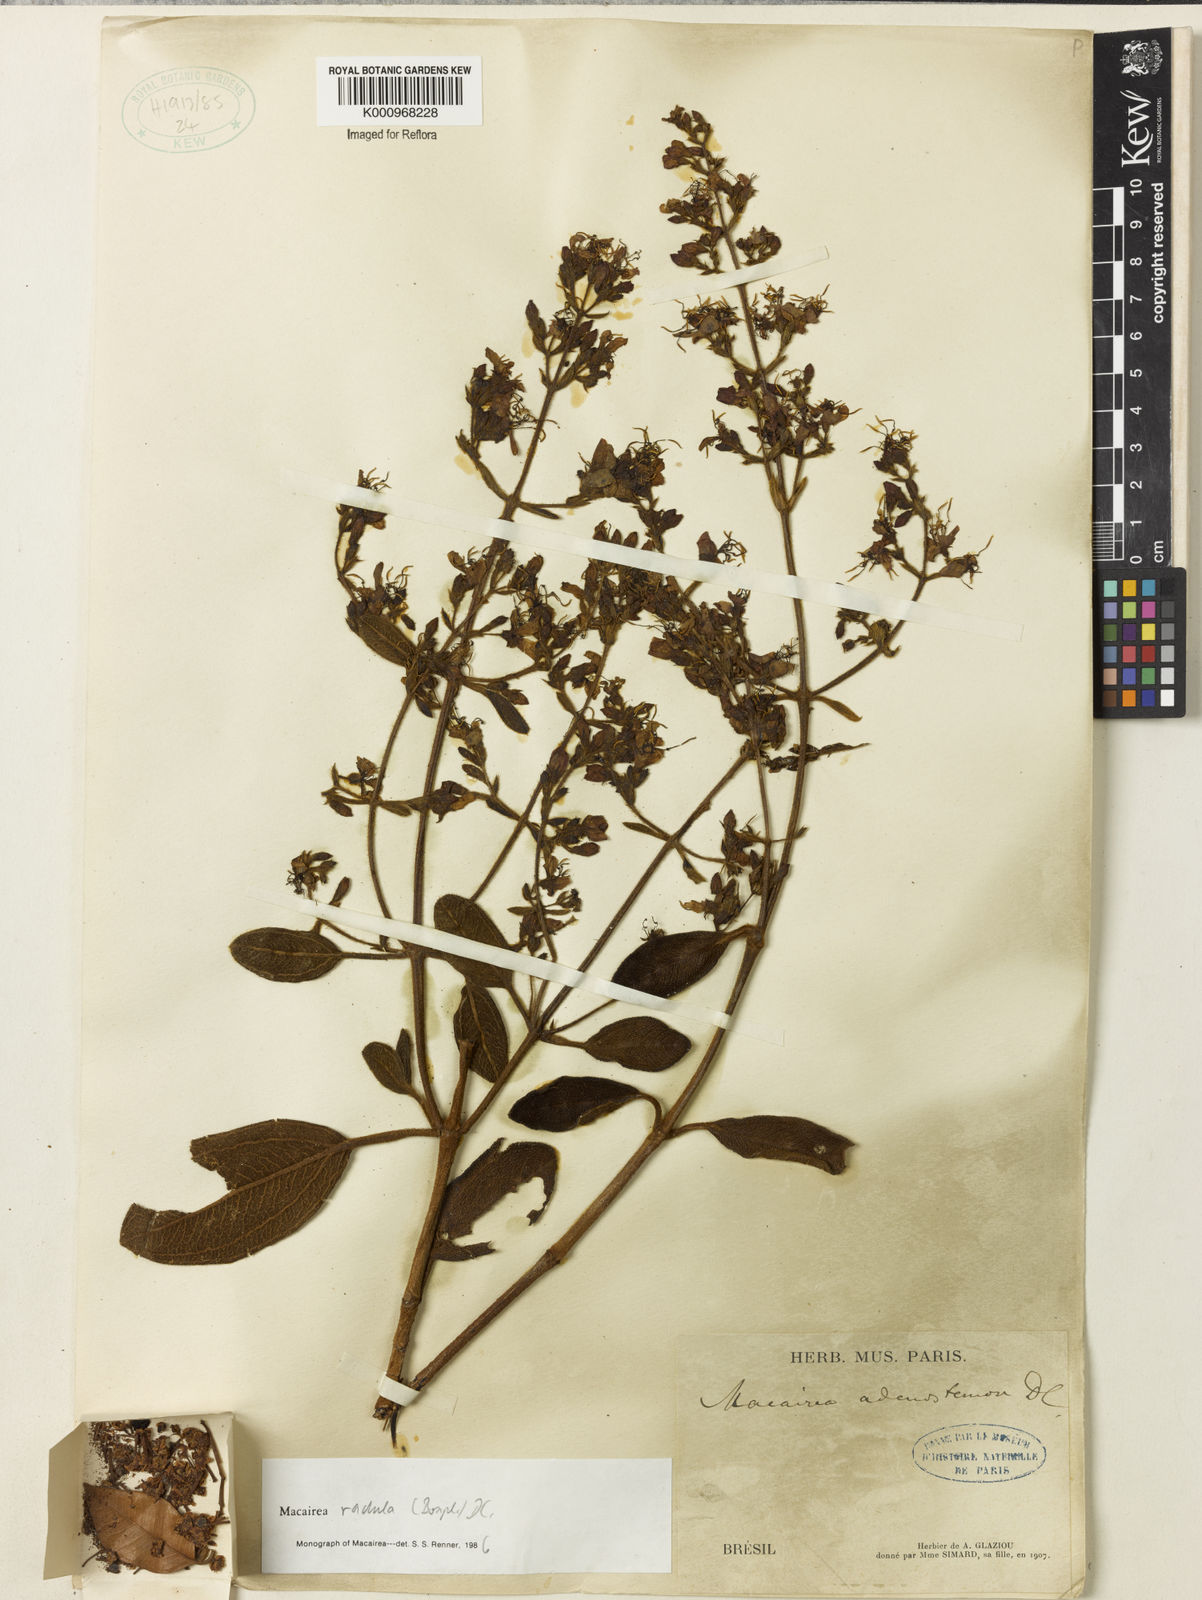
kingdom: Plantae
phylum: Tracheophyta
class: Magnoliopsida
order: Myrtales
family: Melastomataceae
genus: Macairea
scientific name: Macairea radula
